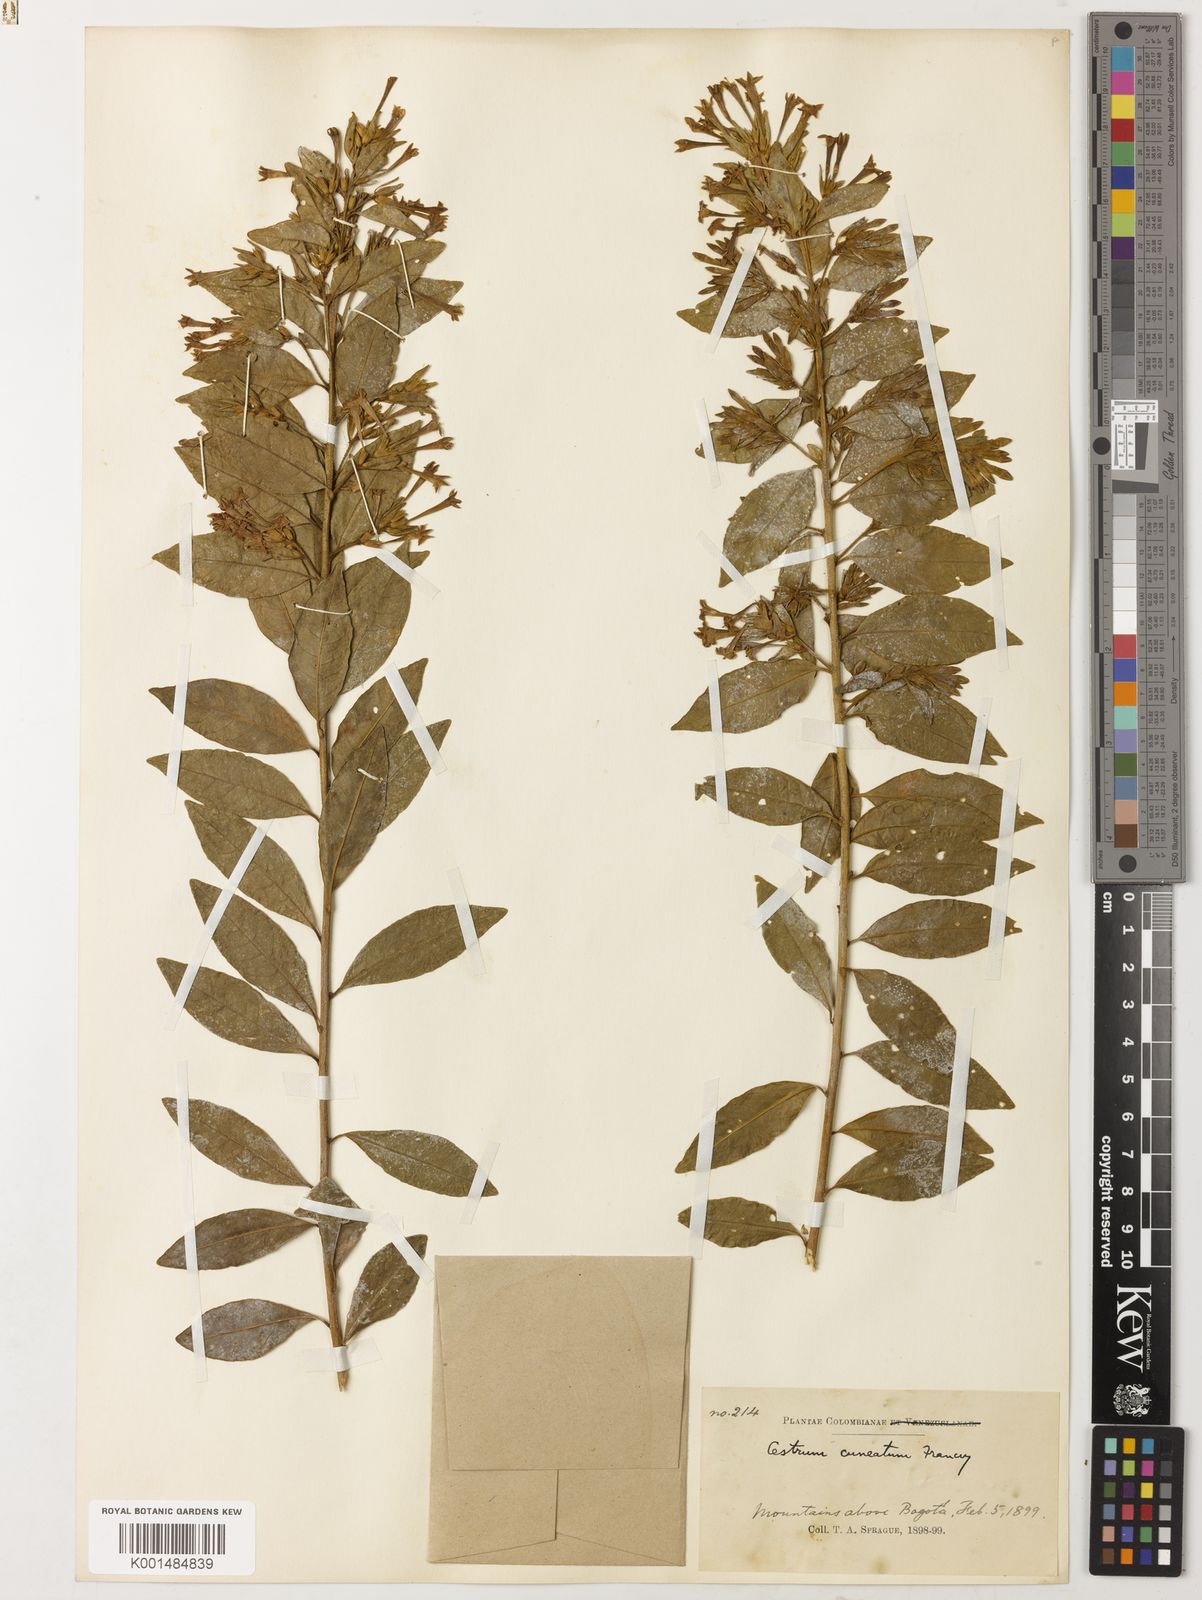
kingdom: Plantae
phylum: Tracheophyta
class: Magnoliopsida
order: Solanales
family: Solanaceae
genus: Cestrum
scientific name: Cestrum buxifolium
